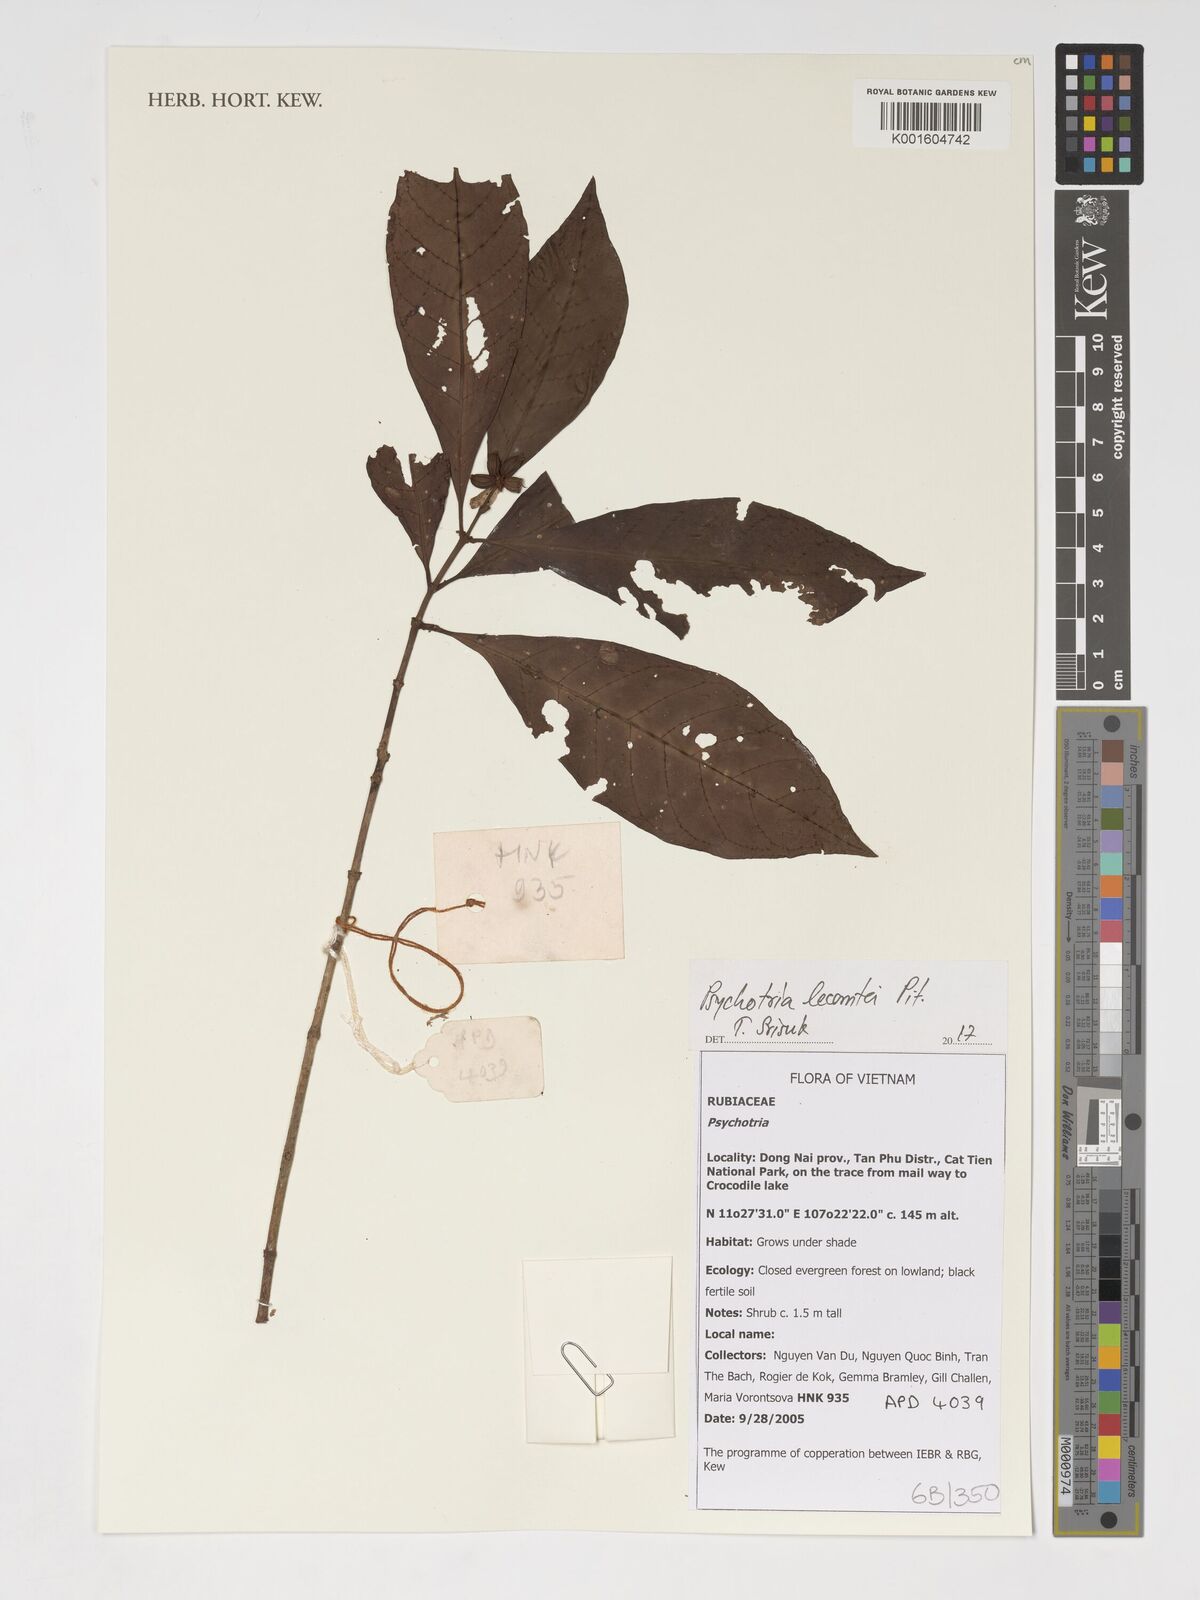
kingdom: Plantae
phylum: Tracheophyta
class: Magnoliopsida
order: Gentianales
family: Rubiaceae
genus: Psychotria
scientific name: Psychotria lecomtei
